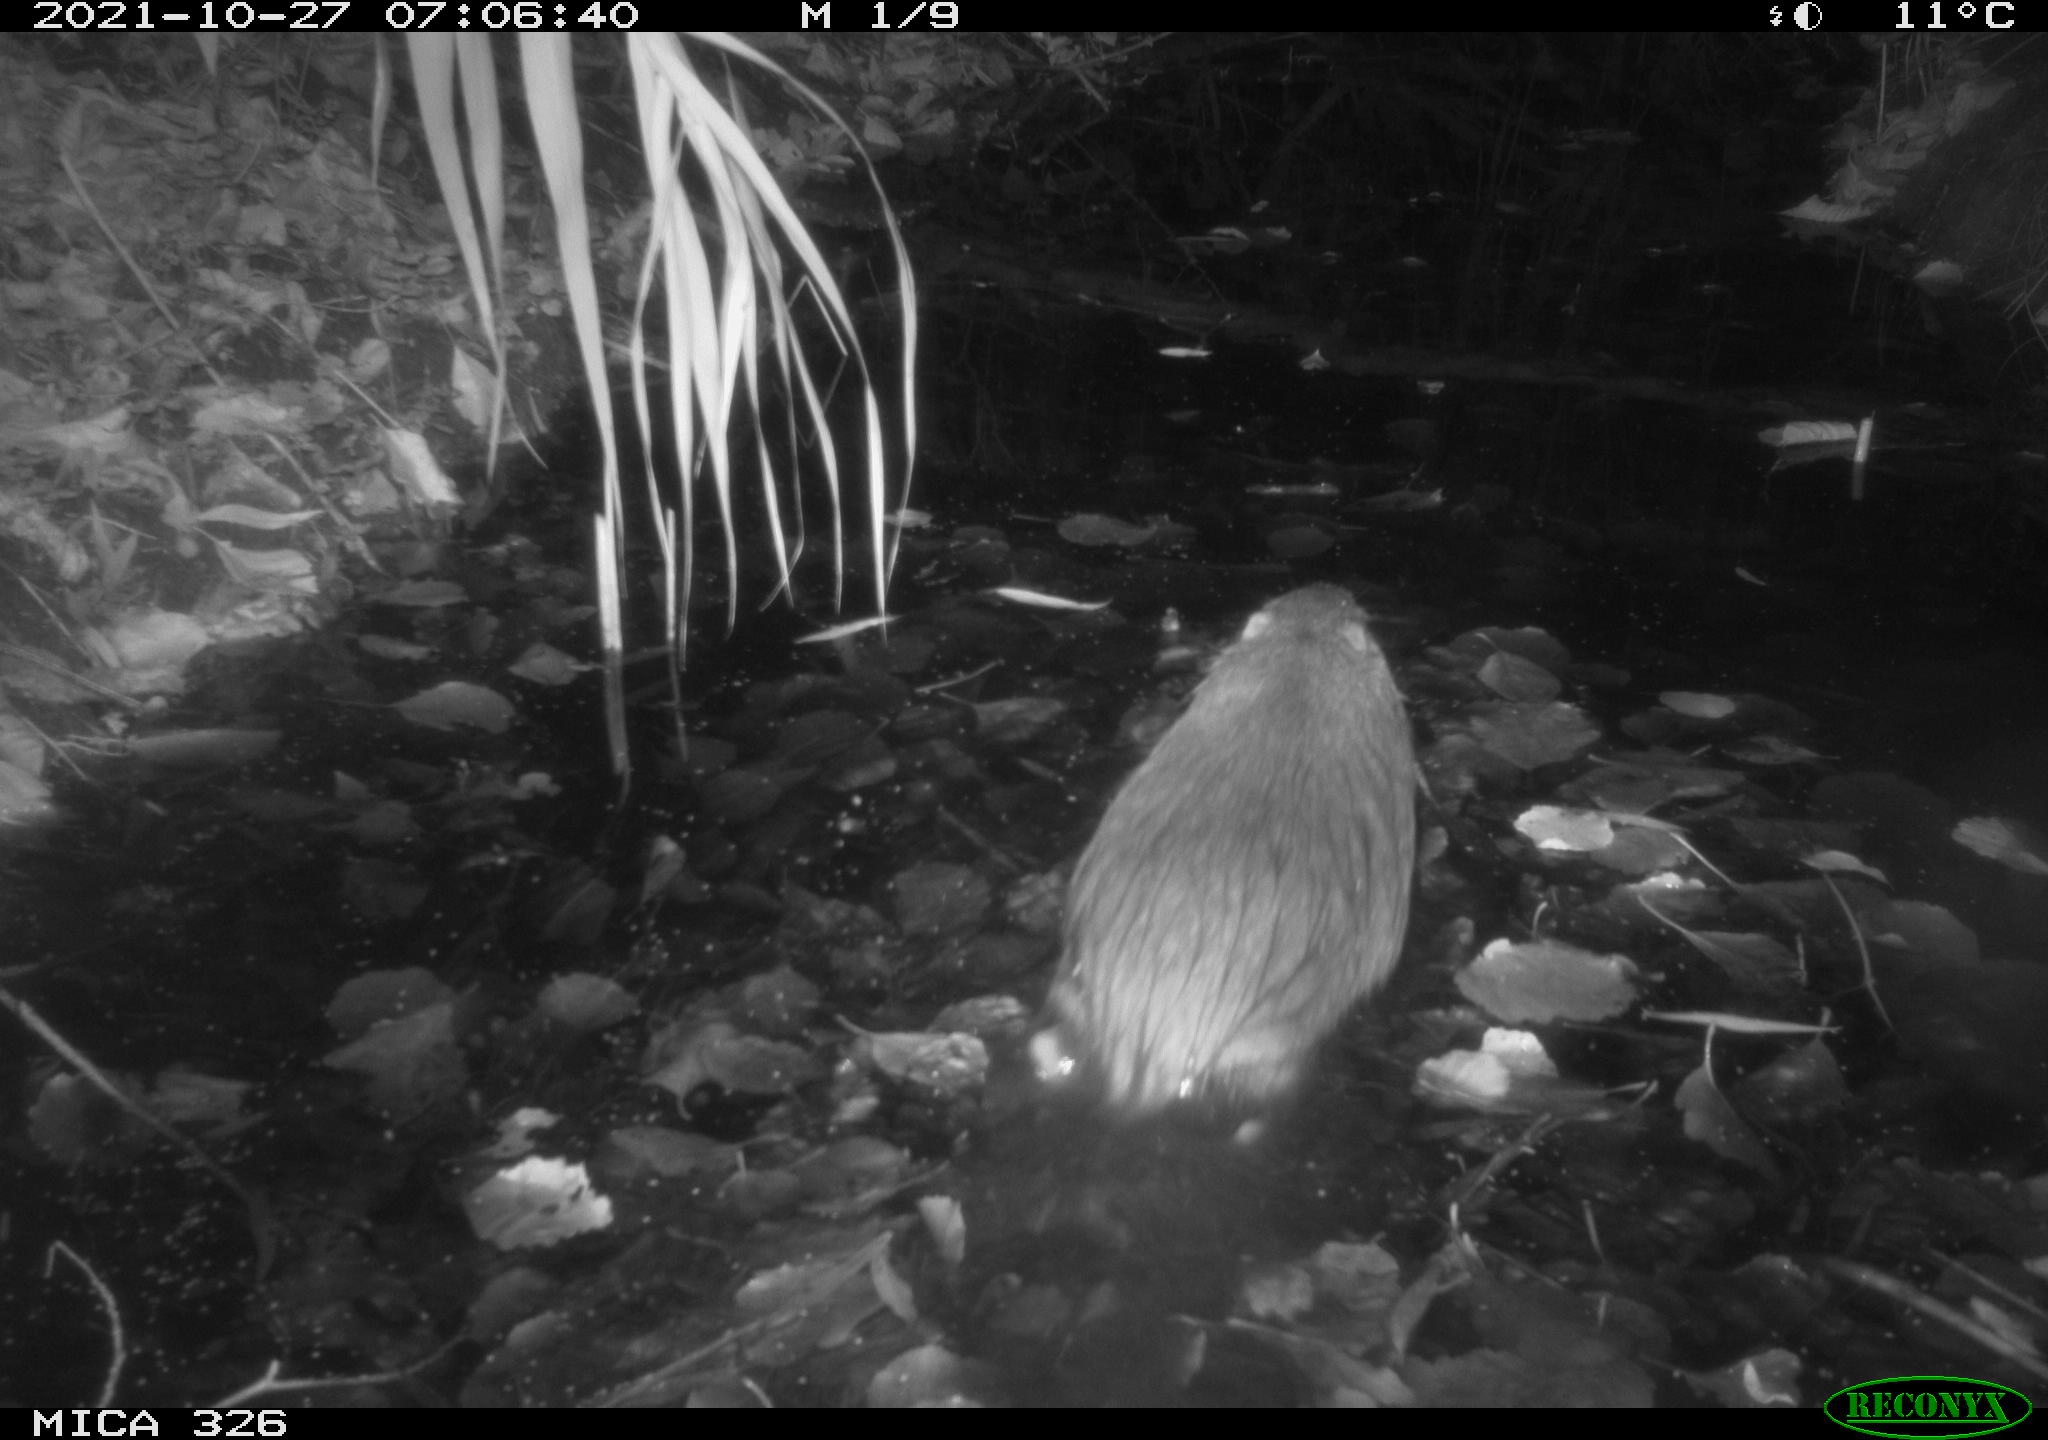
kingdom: Animalia
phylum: Chordata
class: Mammalia
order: Rodentia
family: Myocastoridae
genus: Myocastor
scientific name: Myocastor coypus
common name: Coypu
